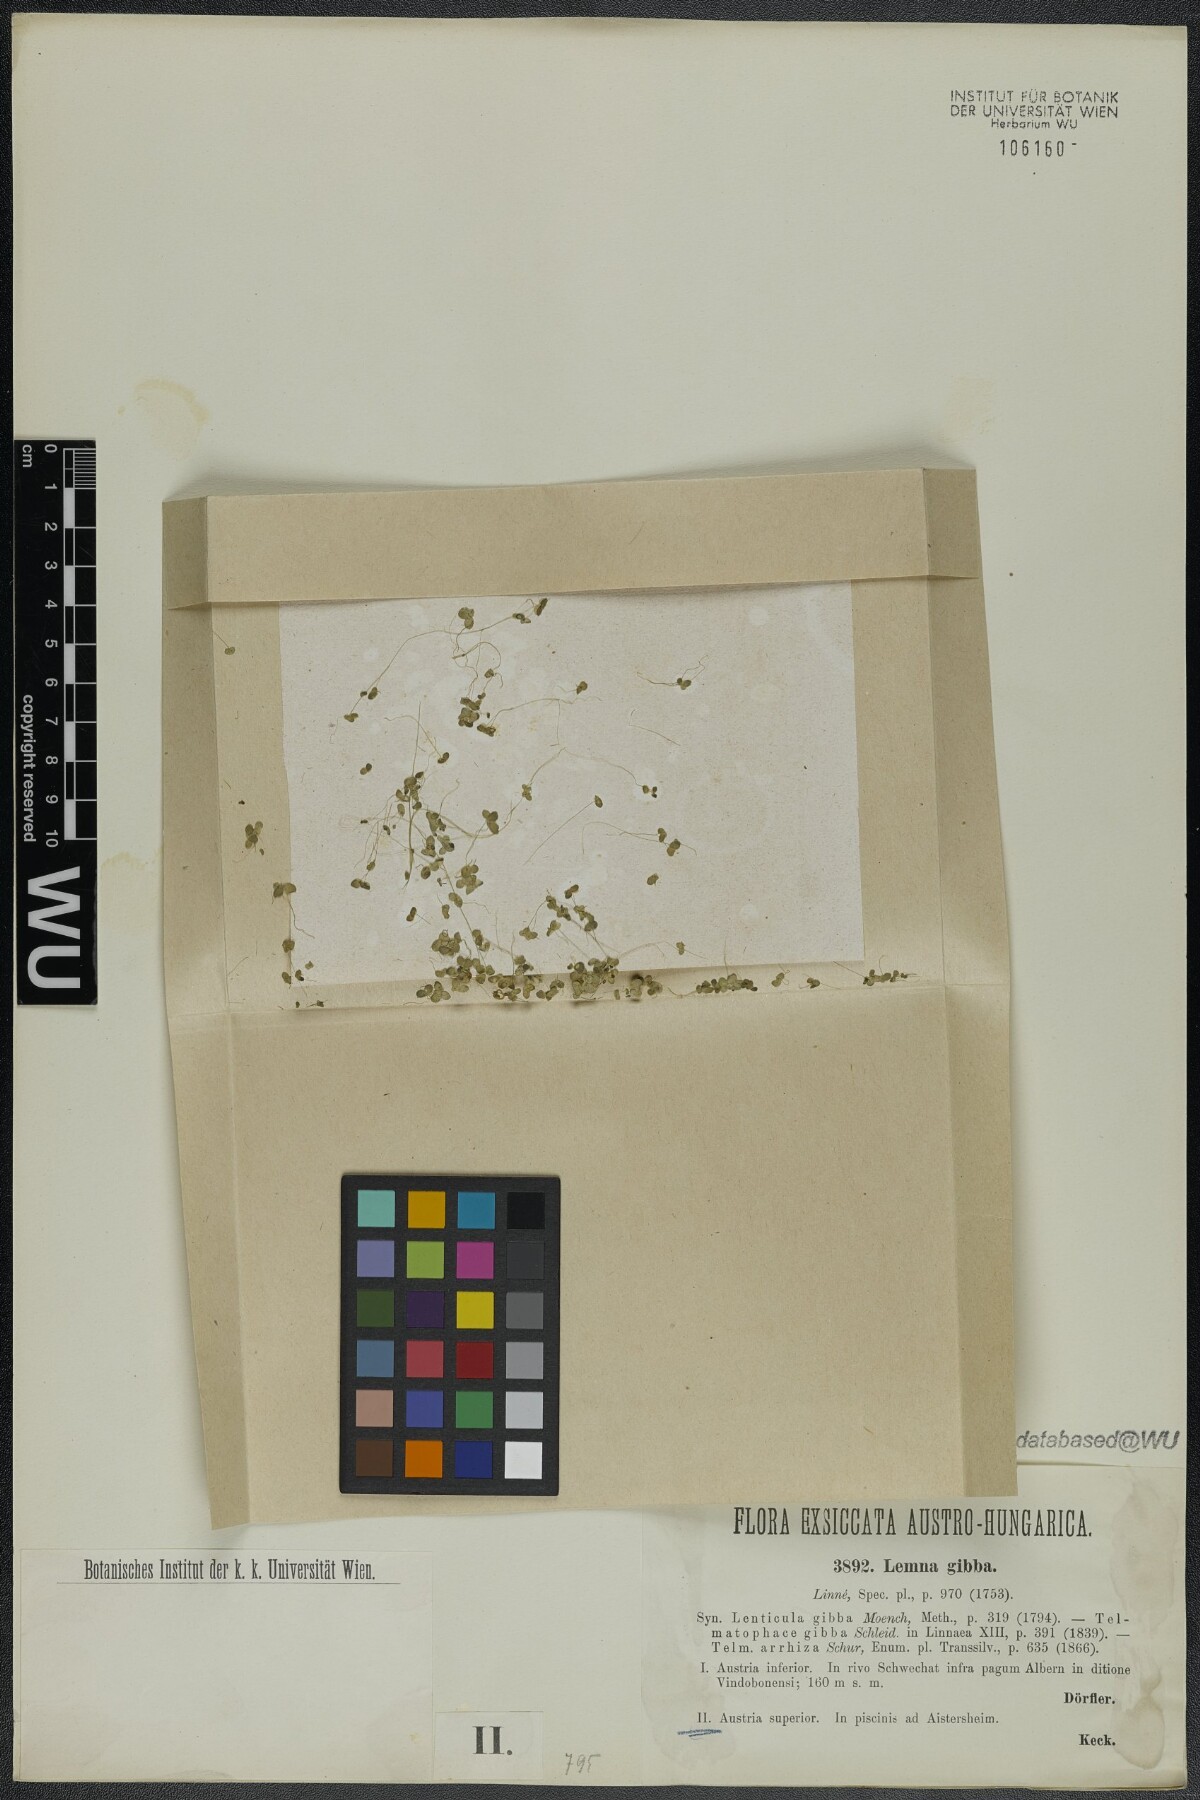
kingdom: Plantae
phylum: Tracheophyta
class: Liliopsida
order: Alismatales
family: Araceae
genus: Lemna
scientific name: Lemna gibba
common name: Fat duckweed
